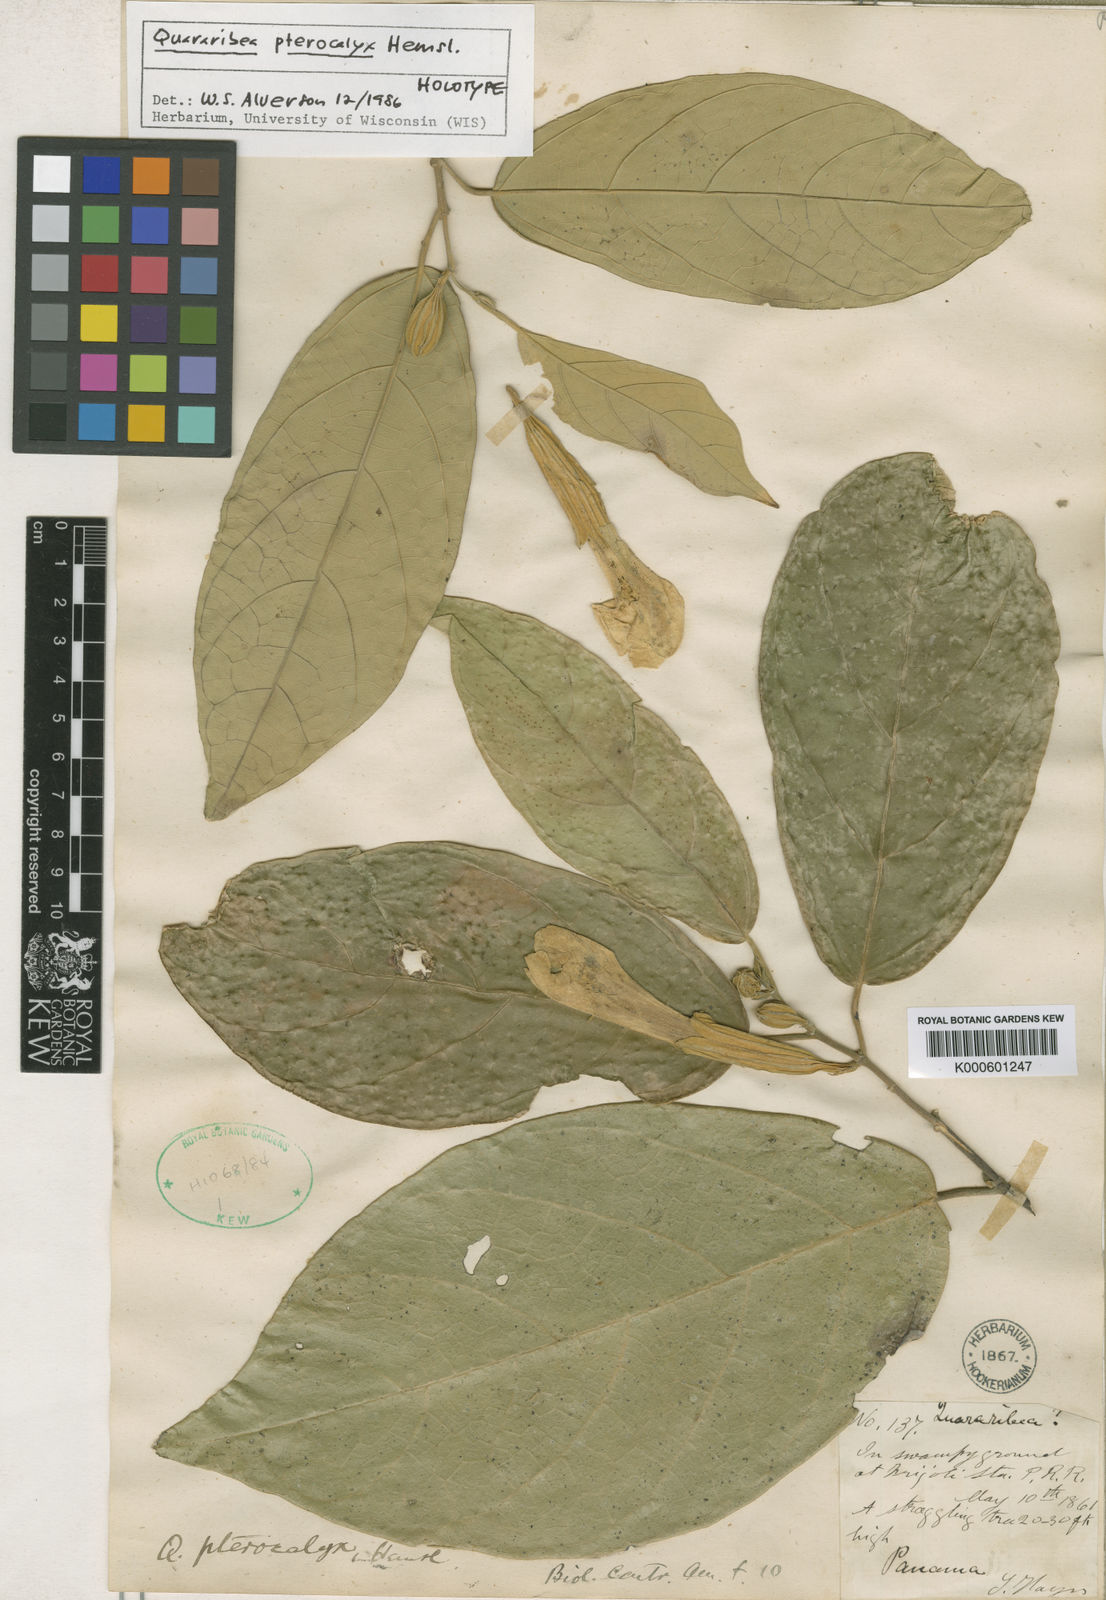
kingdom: Plantae
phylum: Tracheophyta
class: Magnoliopsida
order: Malvales
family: Malvaceae
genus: Quararibea
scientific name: Quararibea pterocalyx
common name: Wild palm
